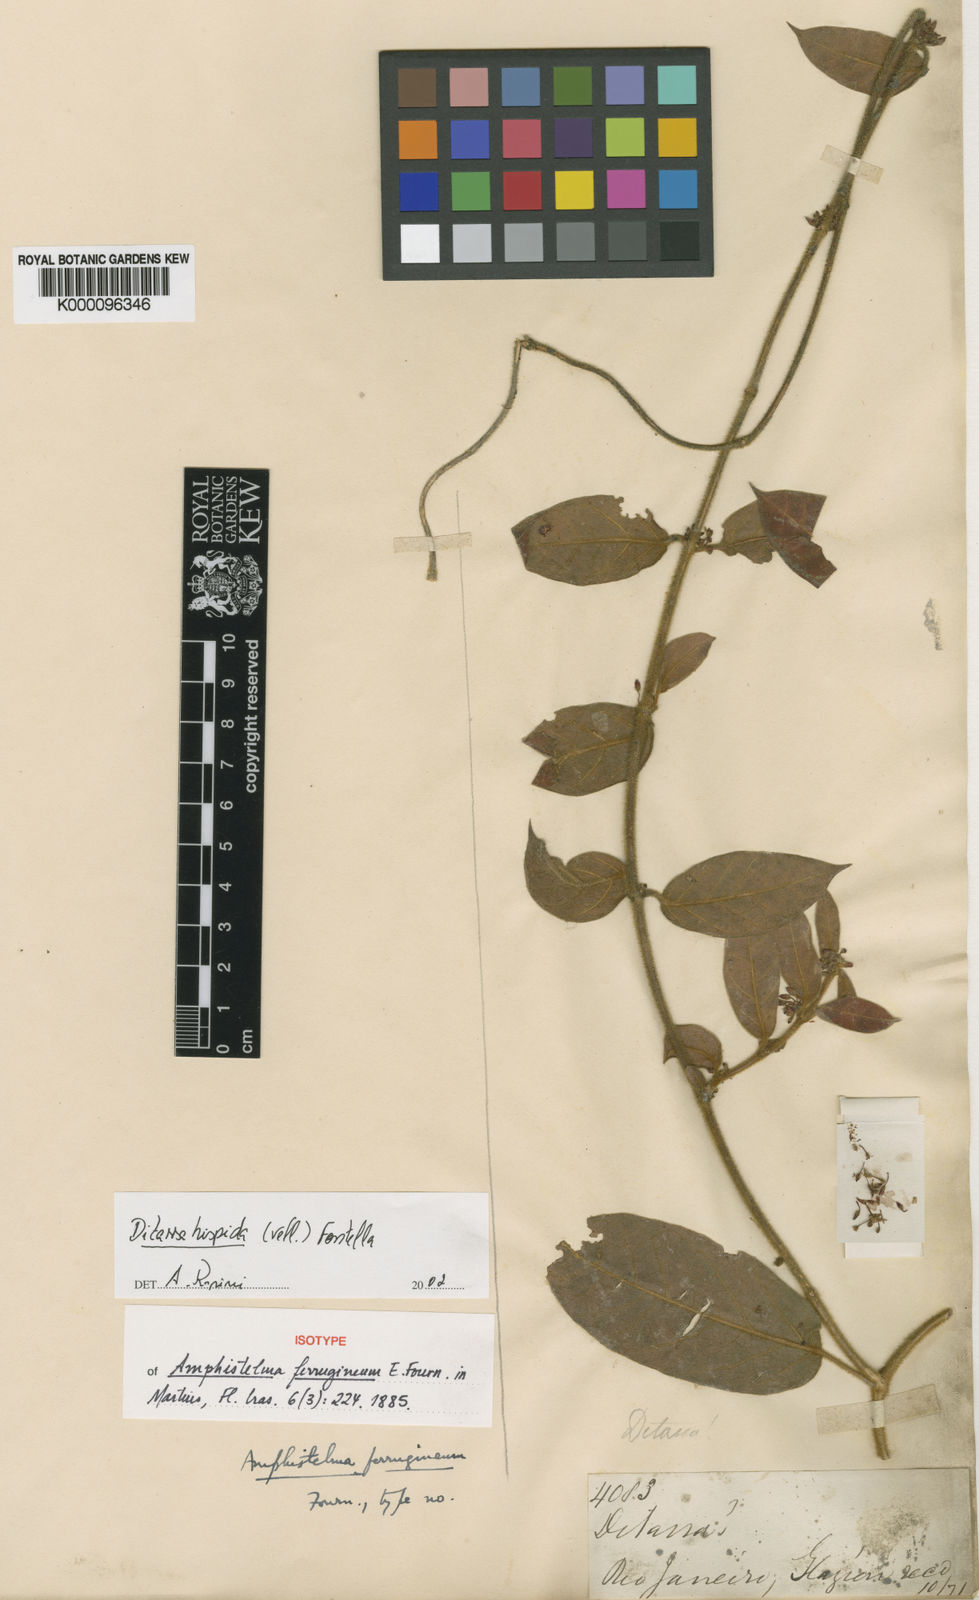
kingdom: Plantae
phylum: Tracheophyta
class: Magnoliopsida
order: Gentianales
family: Apocynaceae
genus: Ditassa
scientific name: Ditassa hispida
